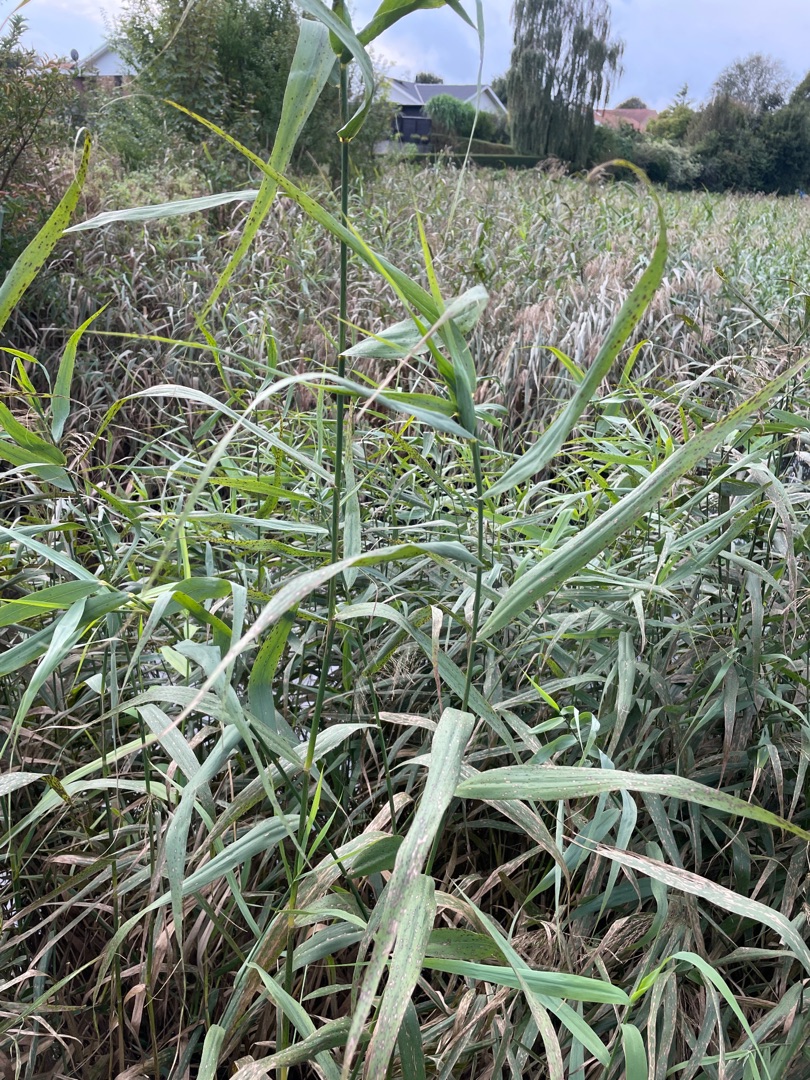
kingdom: Plantae
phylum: Tracheophyta
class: Liliopsida
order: Poales
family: Poaceae
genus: Phragmites
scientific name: Phragmites australis
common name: Tagrør
